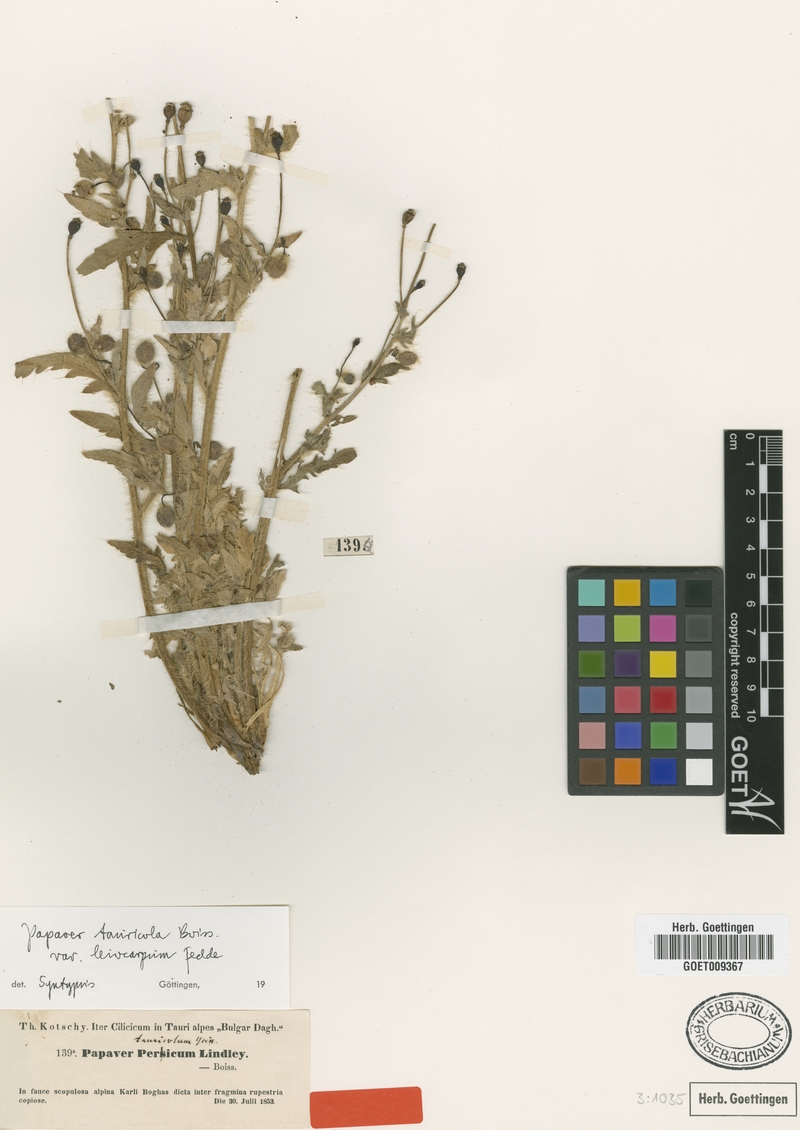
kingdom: Plantae
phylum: Tracheophyta
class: Magnoliopsida
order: Ranunculales
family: Papaveraceae
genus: Papaver
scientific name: Papaver persicum
